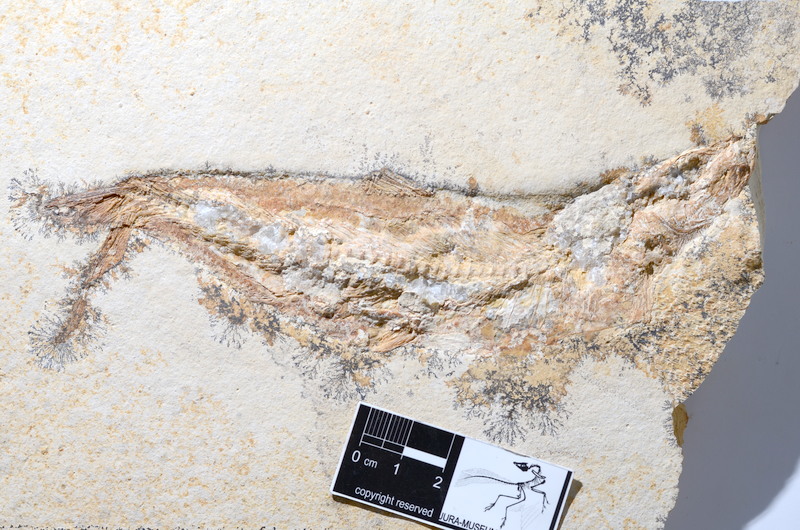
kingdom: Animalia
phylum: Chordata
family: Ascalaboidae
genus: Tharsis
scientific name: Tharsis dubius
